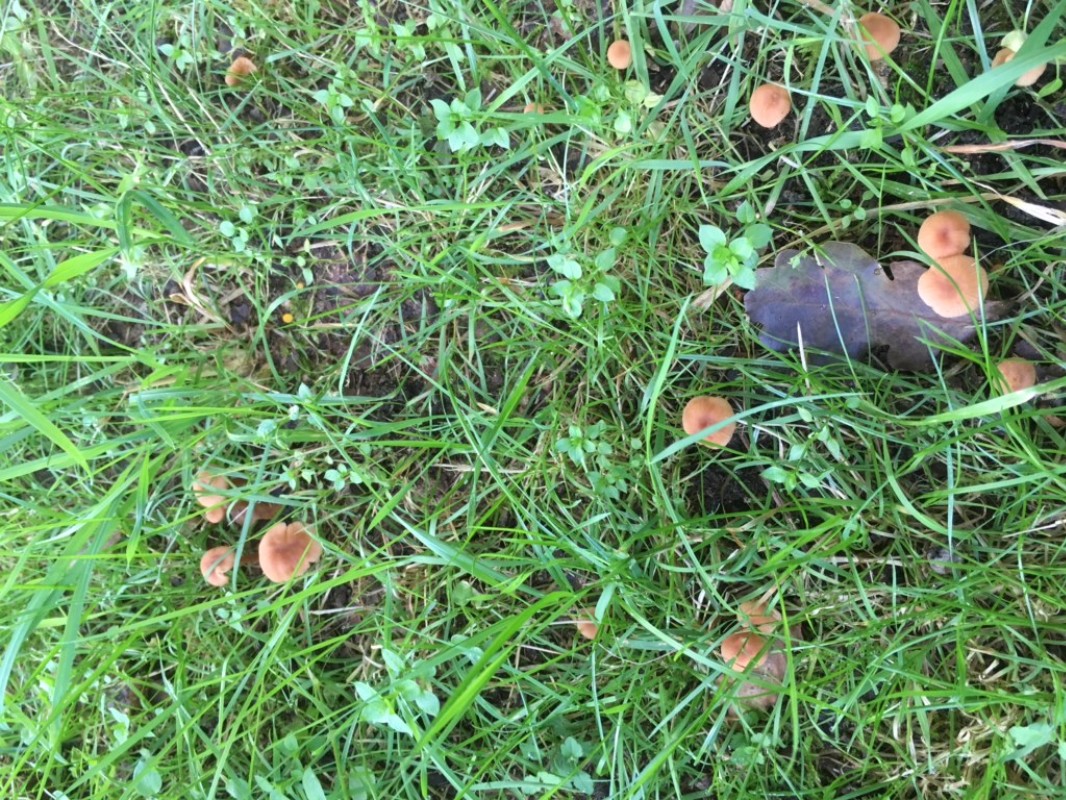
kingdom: Fungi
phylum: Basidiomycota
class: Agaricomycetes
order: Agaricales
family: Hydnangiaceae
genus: Laccaria
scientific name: Laccaria laccata
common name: rød ametysthat
